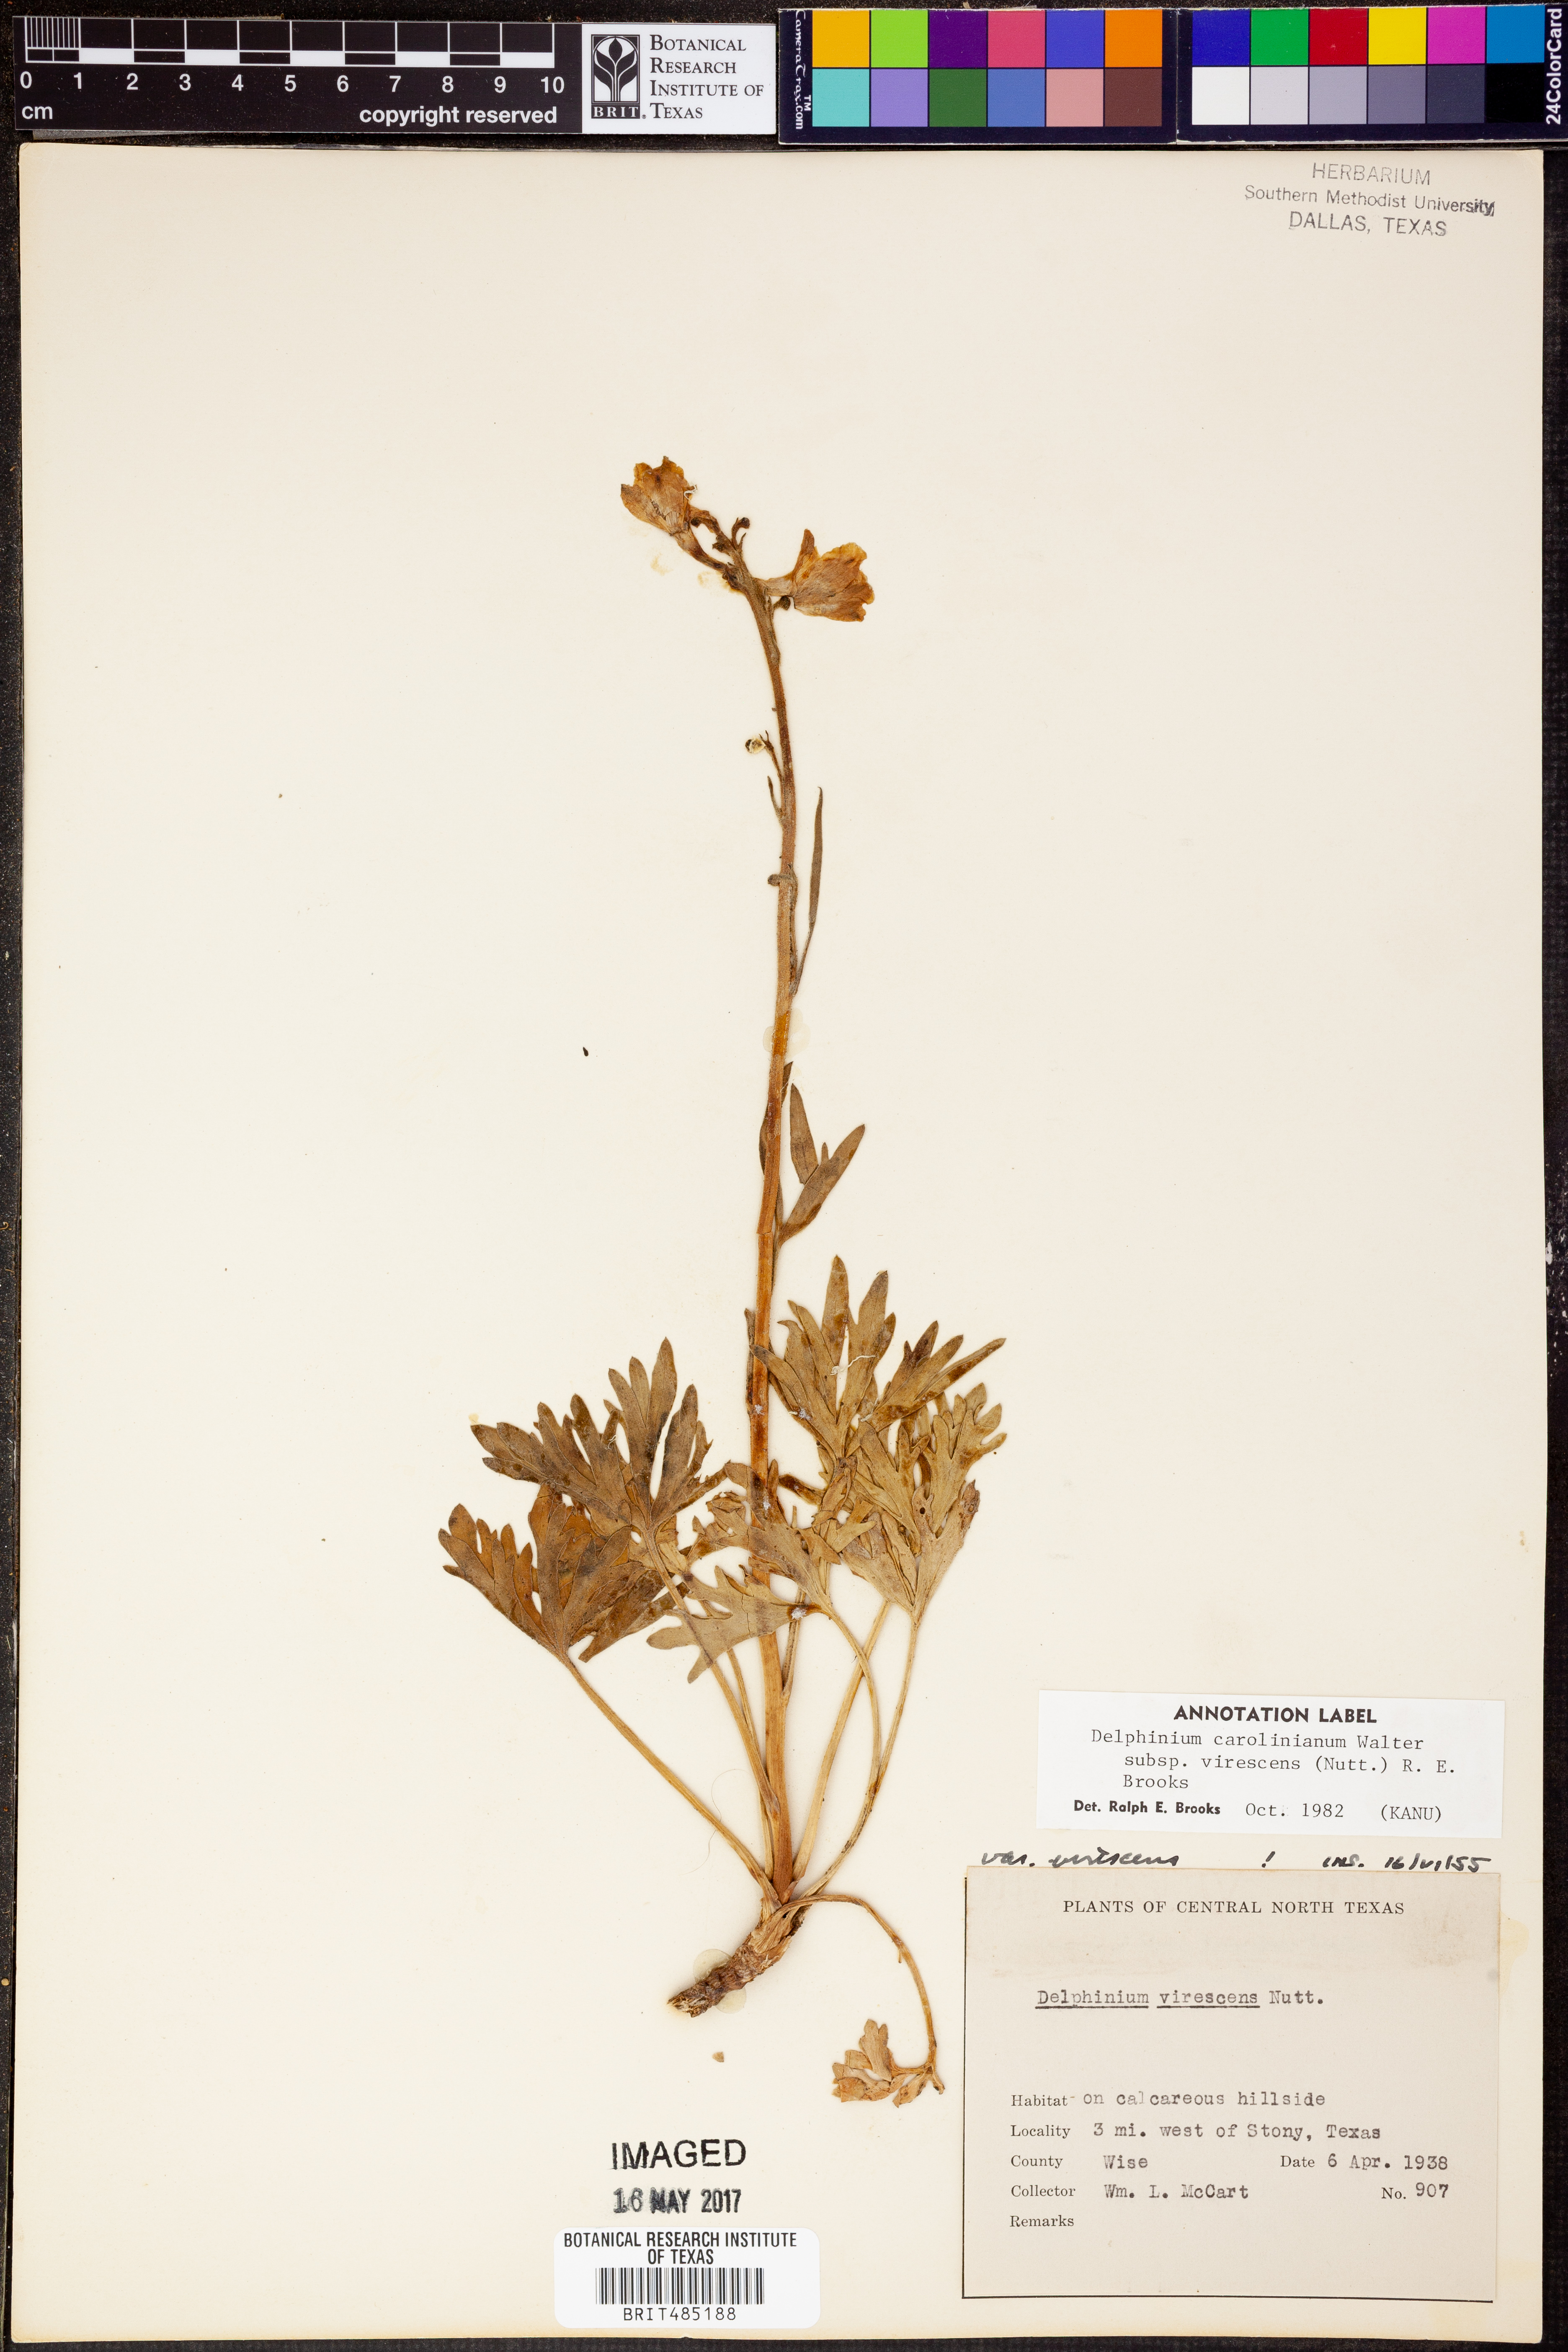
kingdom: Plantae
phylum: Tracheophyta
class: Magnoliopsida
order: Ranunculales
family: Ranunculaceae
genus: Delphinium
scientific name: Delphinium carolinianum
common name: Carolina larkspur
